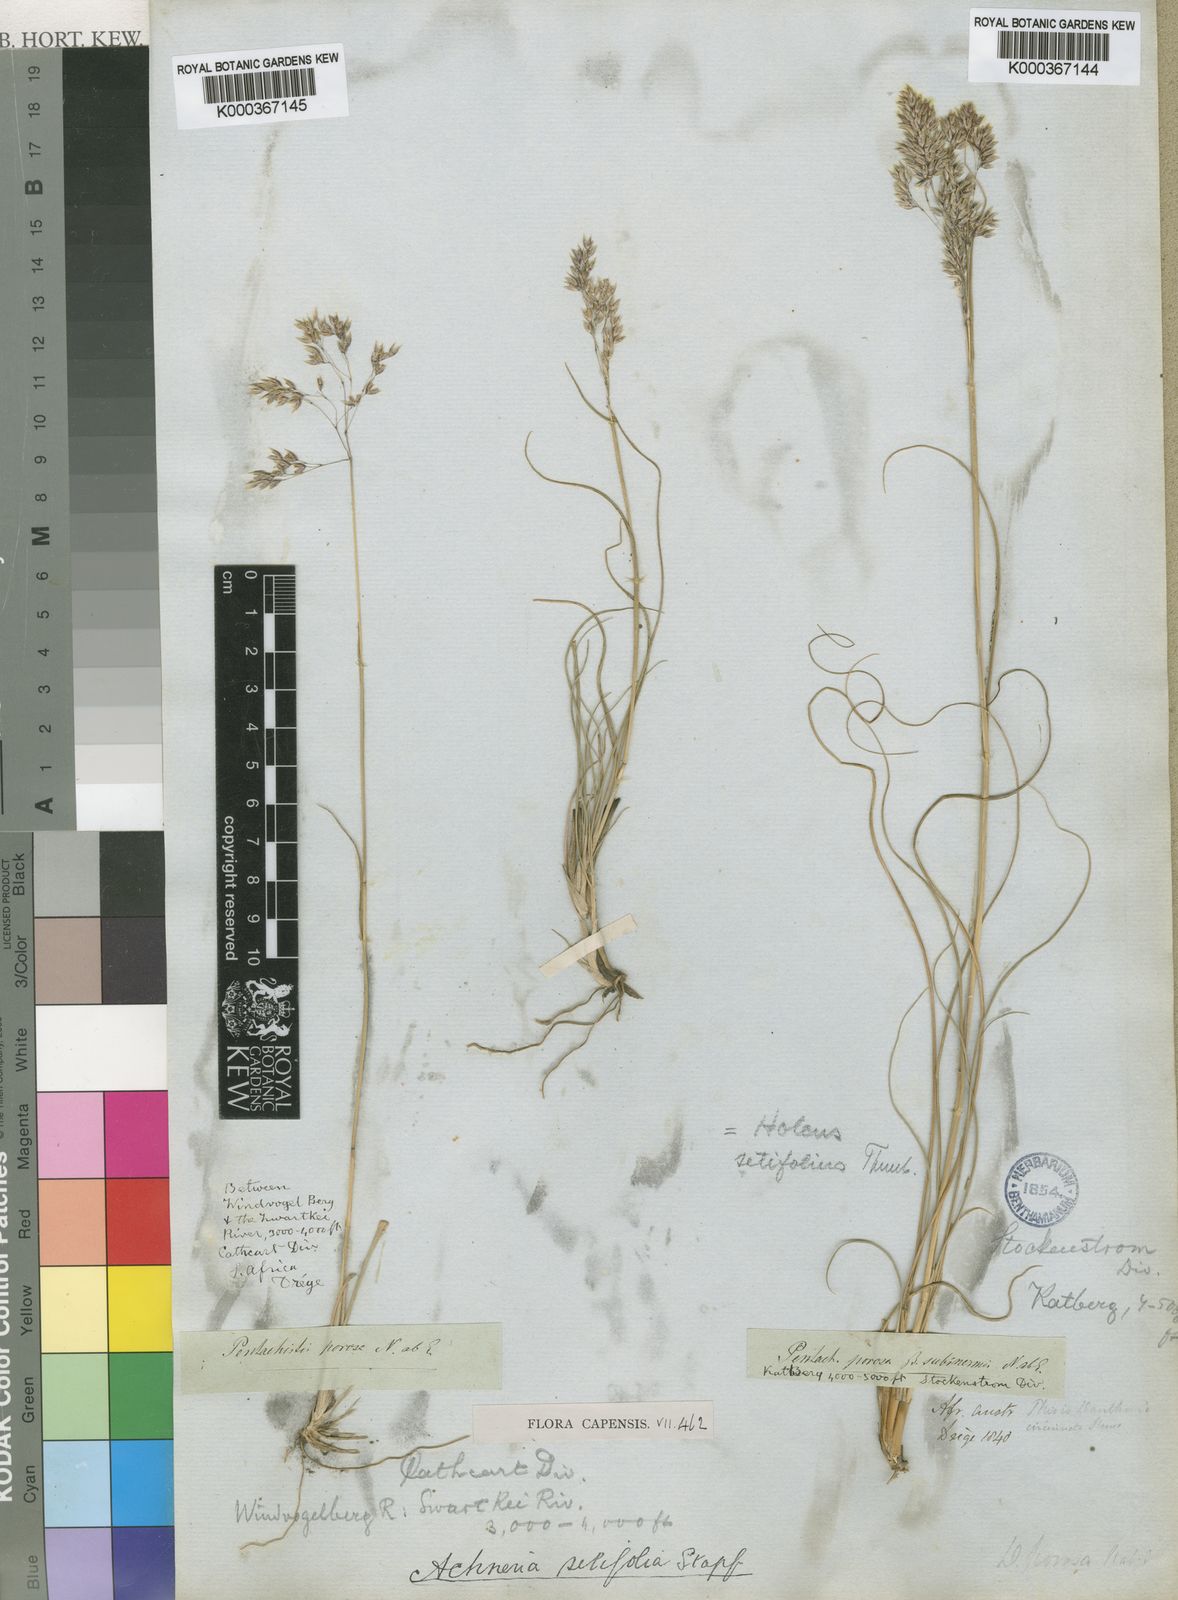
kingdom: Plantae
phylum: Tracheophyta
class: Liliopsida
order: Poales
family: Poaceae
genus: Pentameris
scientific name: Pentameris ampla
